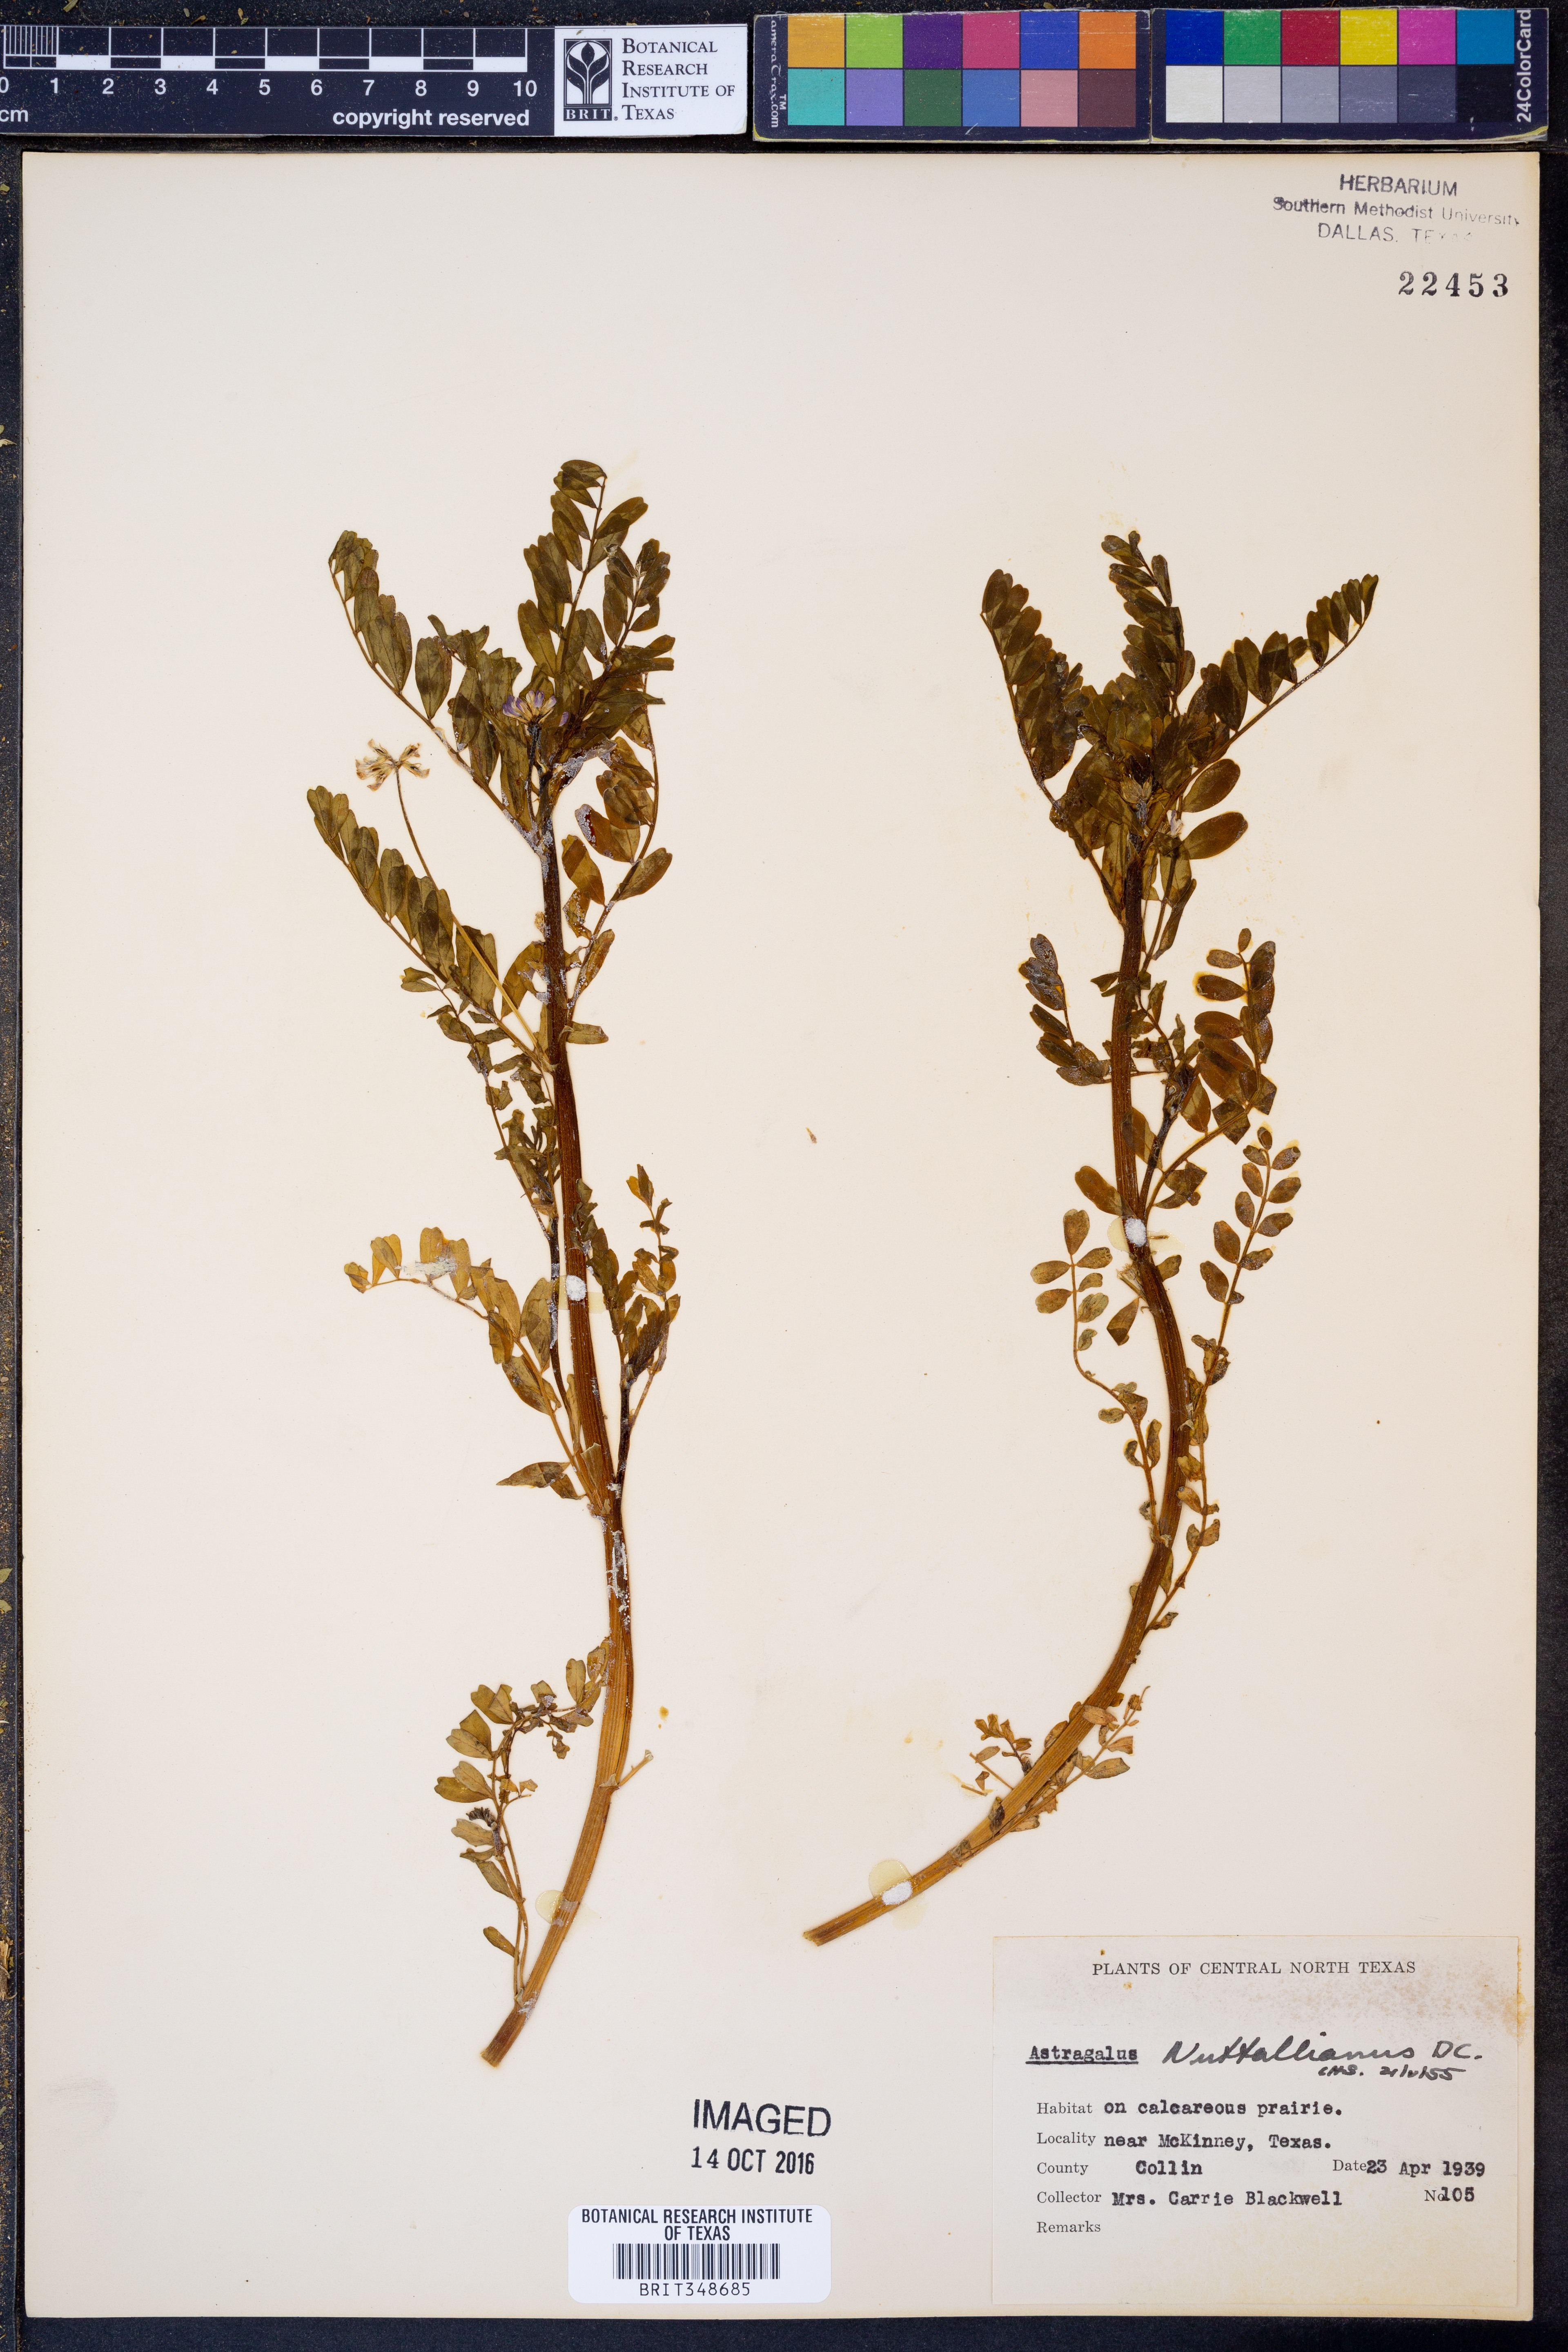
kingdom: Plantae
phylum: Tracheophyta
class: Magnoliopsida
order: Fabales
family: Fabaceae
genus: Astragalus
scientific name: Astragalus nuttallianus
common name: Smallflowered milkvetch
